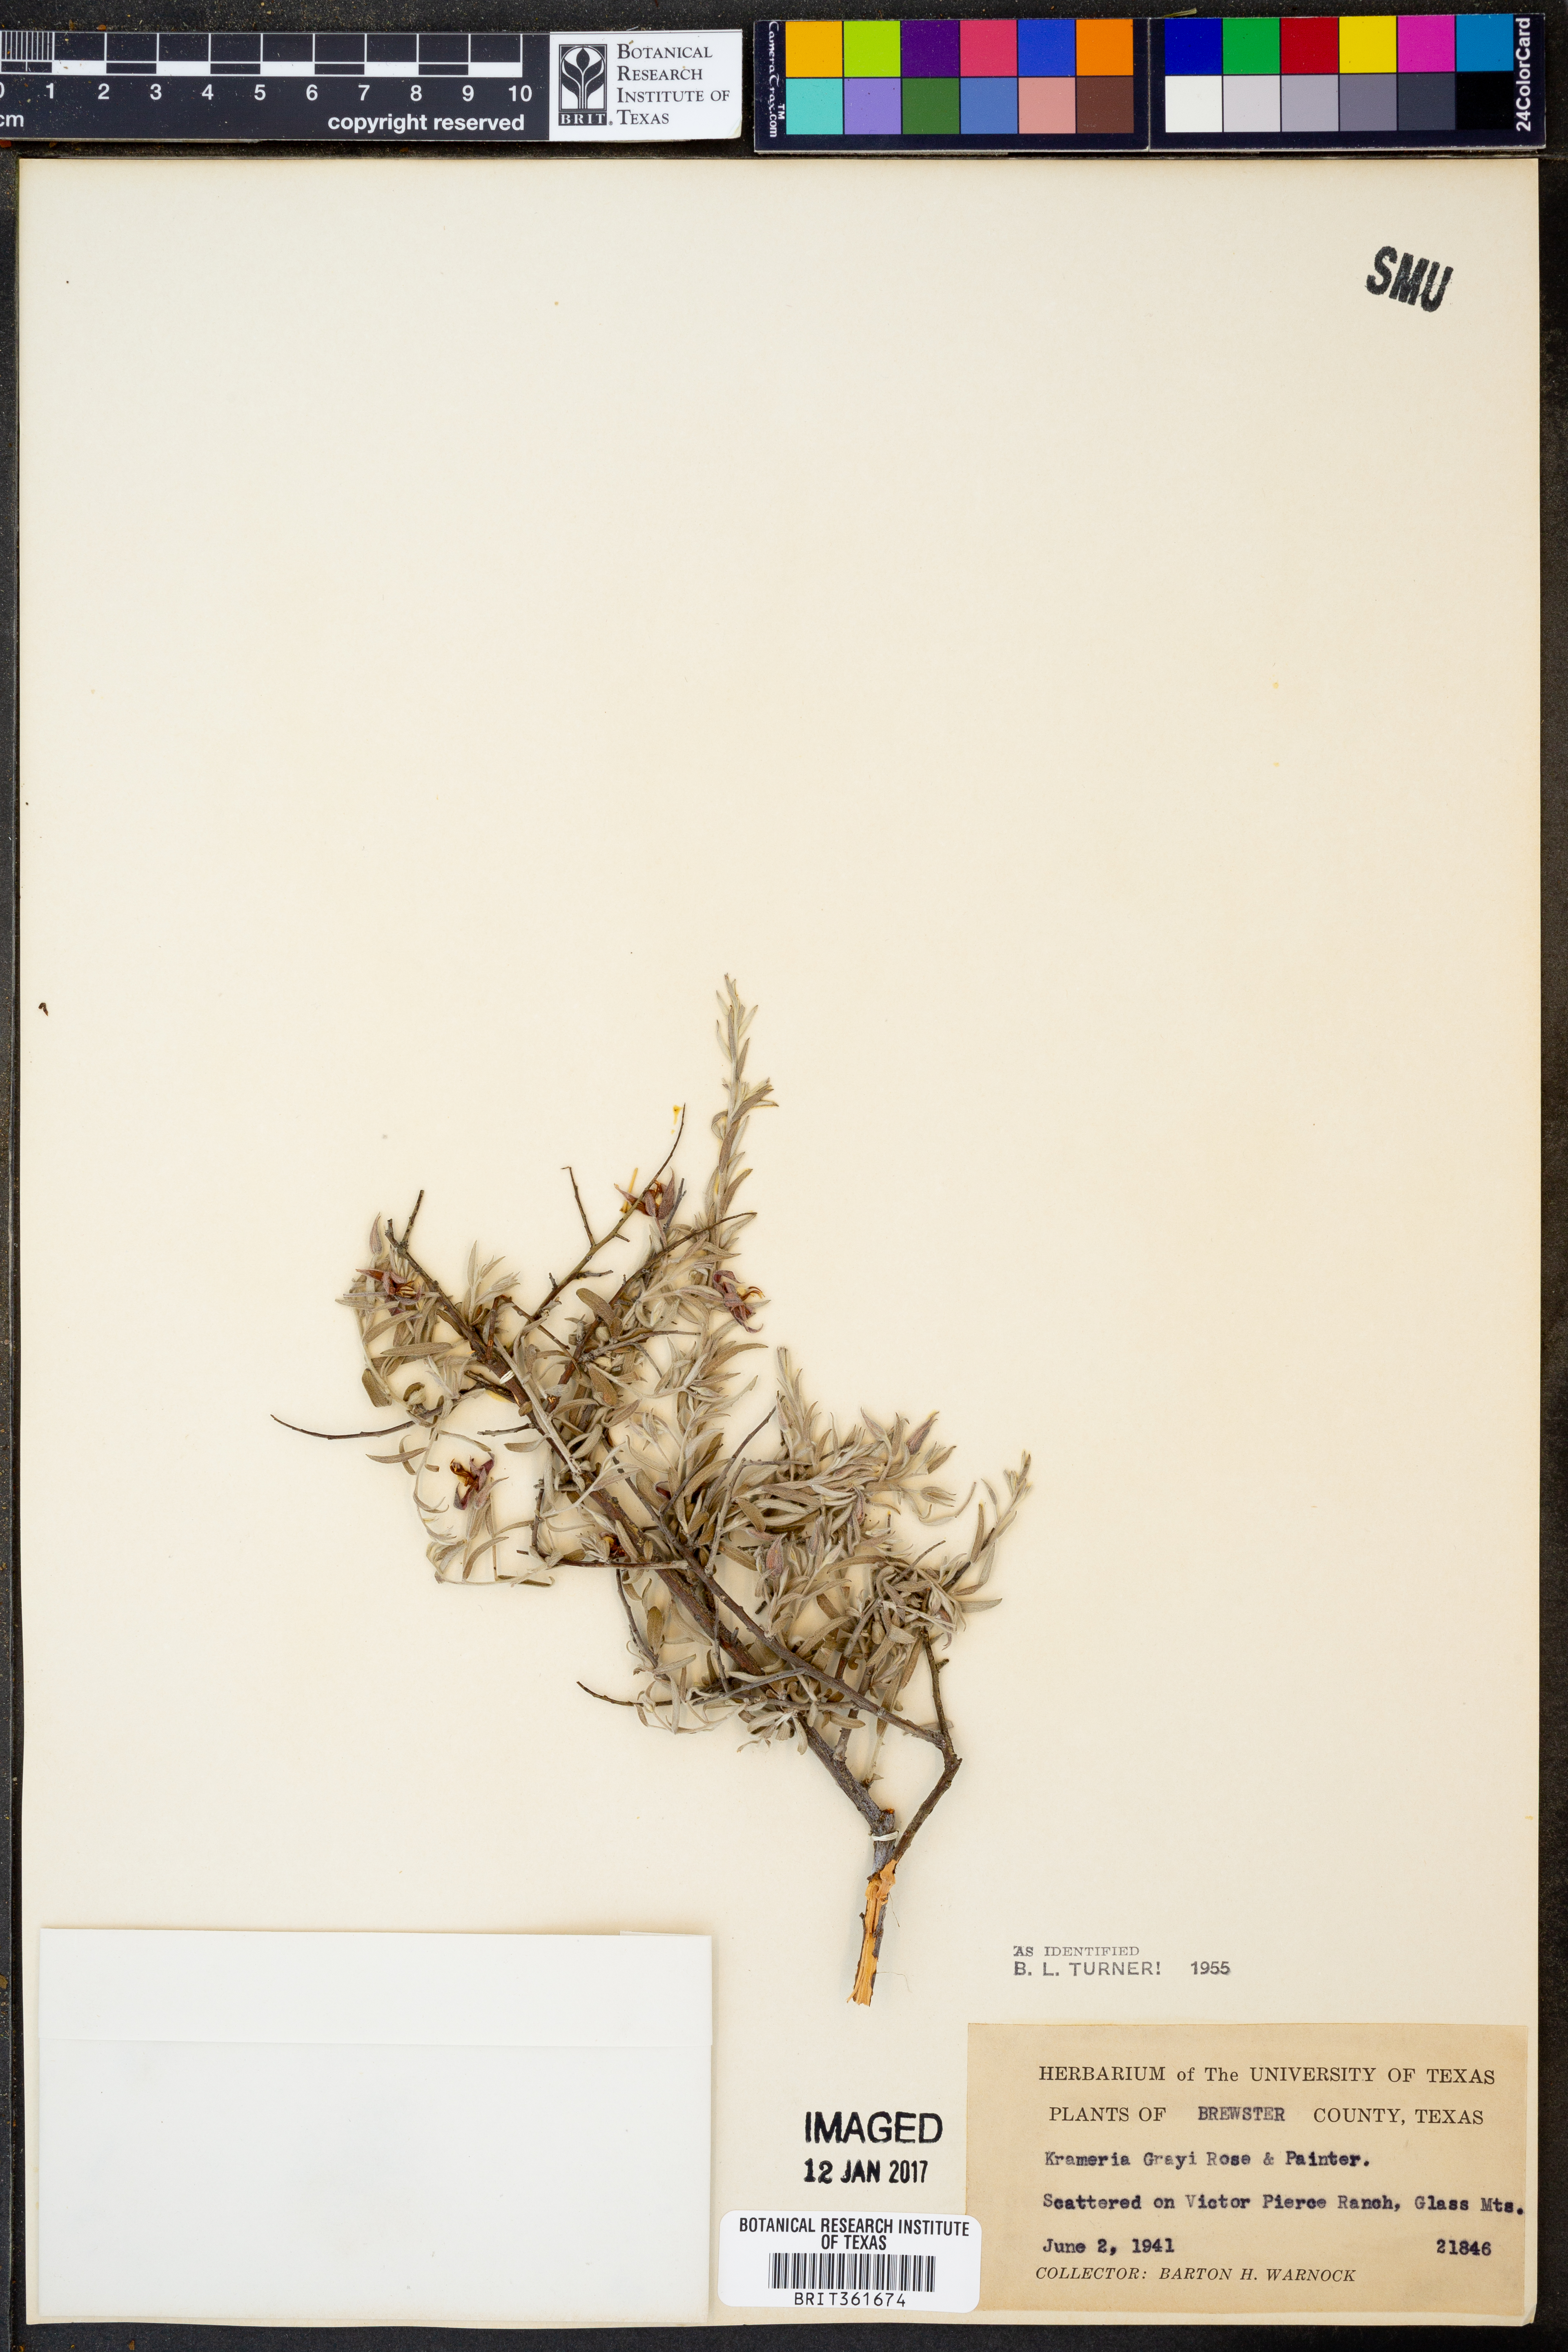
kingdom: Plantae
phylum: Tracheophyta
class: Magnoliopsida
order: Zygophyllales
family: Krameriaceae
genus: Krameria
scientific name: Krameria bicolor
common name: White ratany
